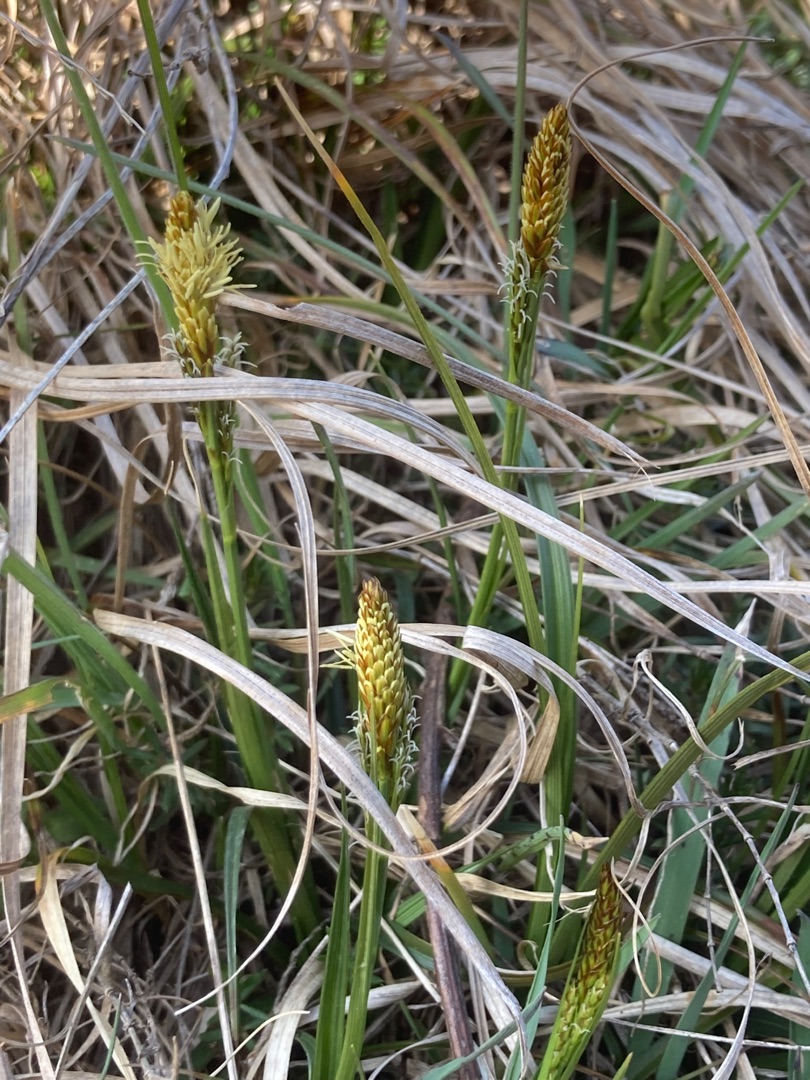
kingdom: Plantae
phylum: Tracheophyta
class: Liliopsida
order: Poales
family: Cyperaceae
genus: Carex
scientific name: Carex caryophyllea
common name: Vår-star
